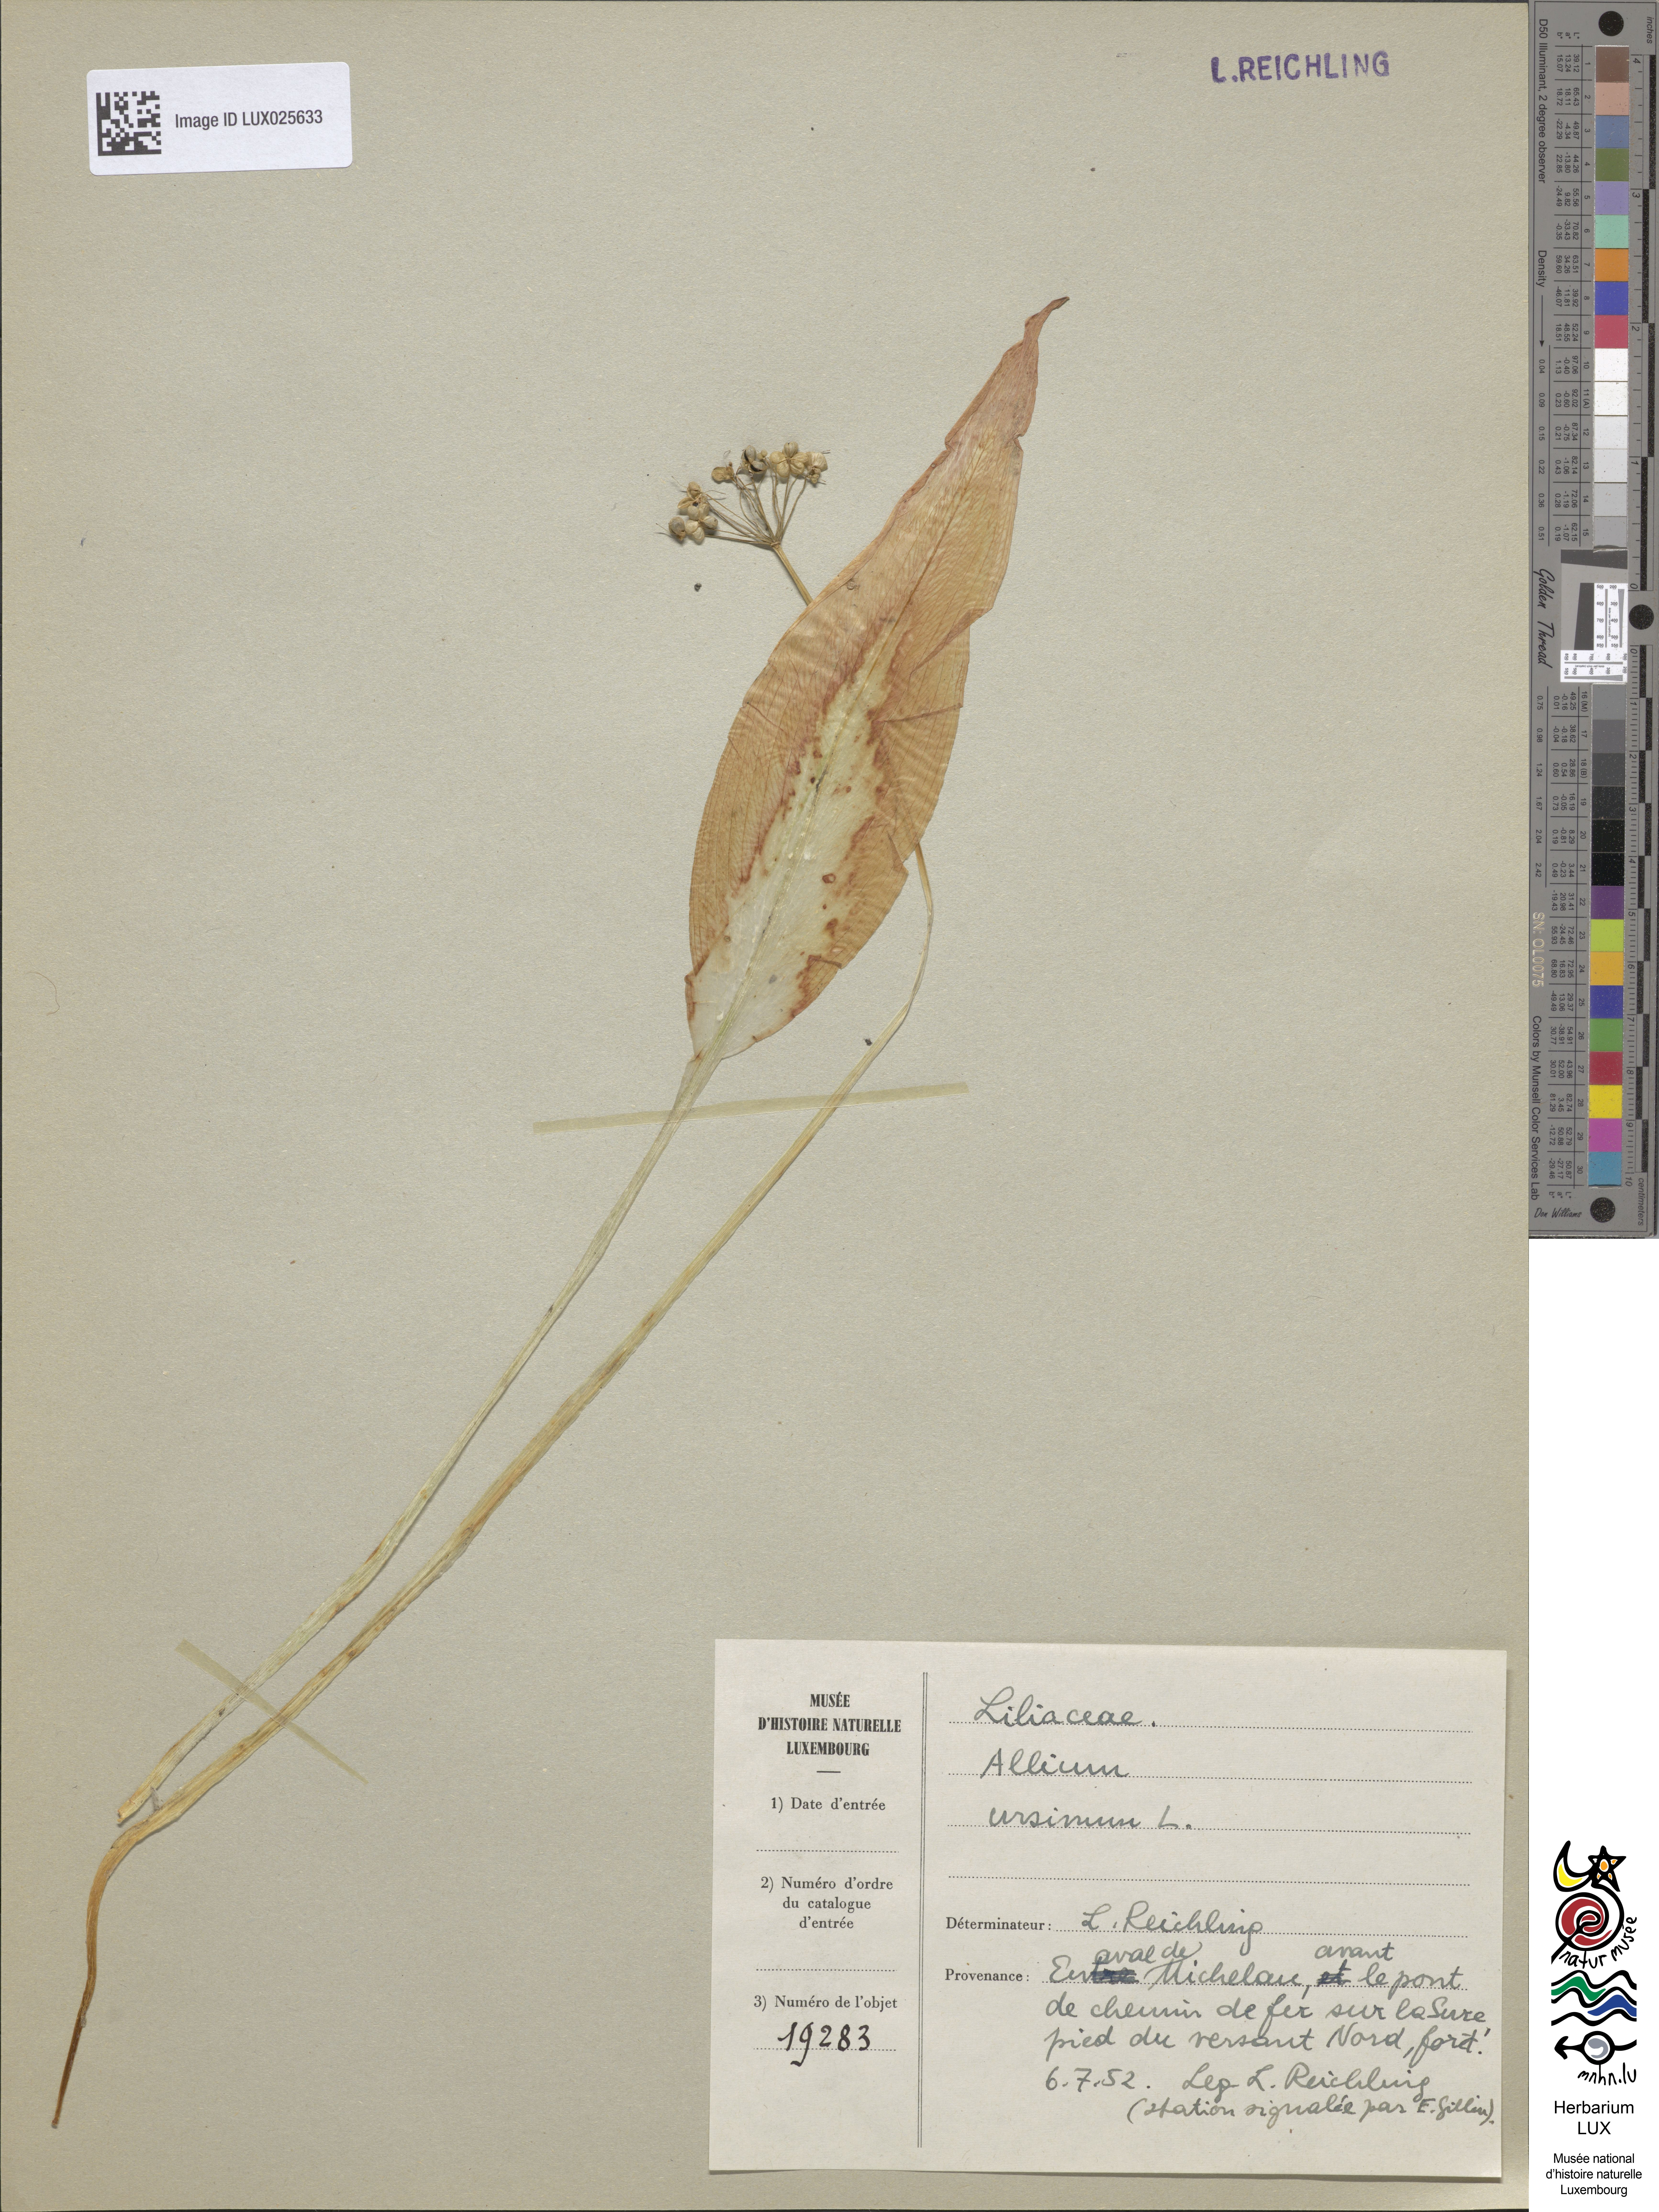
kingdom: Plantae
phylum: Tracheophyta
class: Liliopsida
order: Asparagales
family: Amaryllidaceae
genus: Allium
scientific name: Allium ursinum
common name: Ramsons
